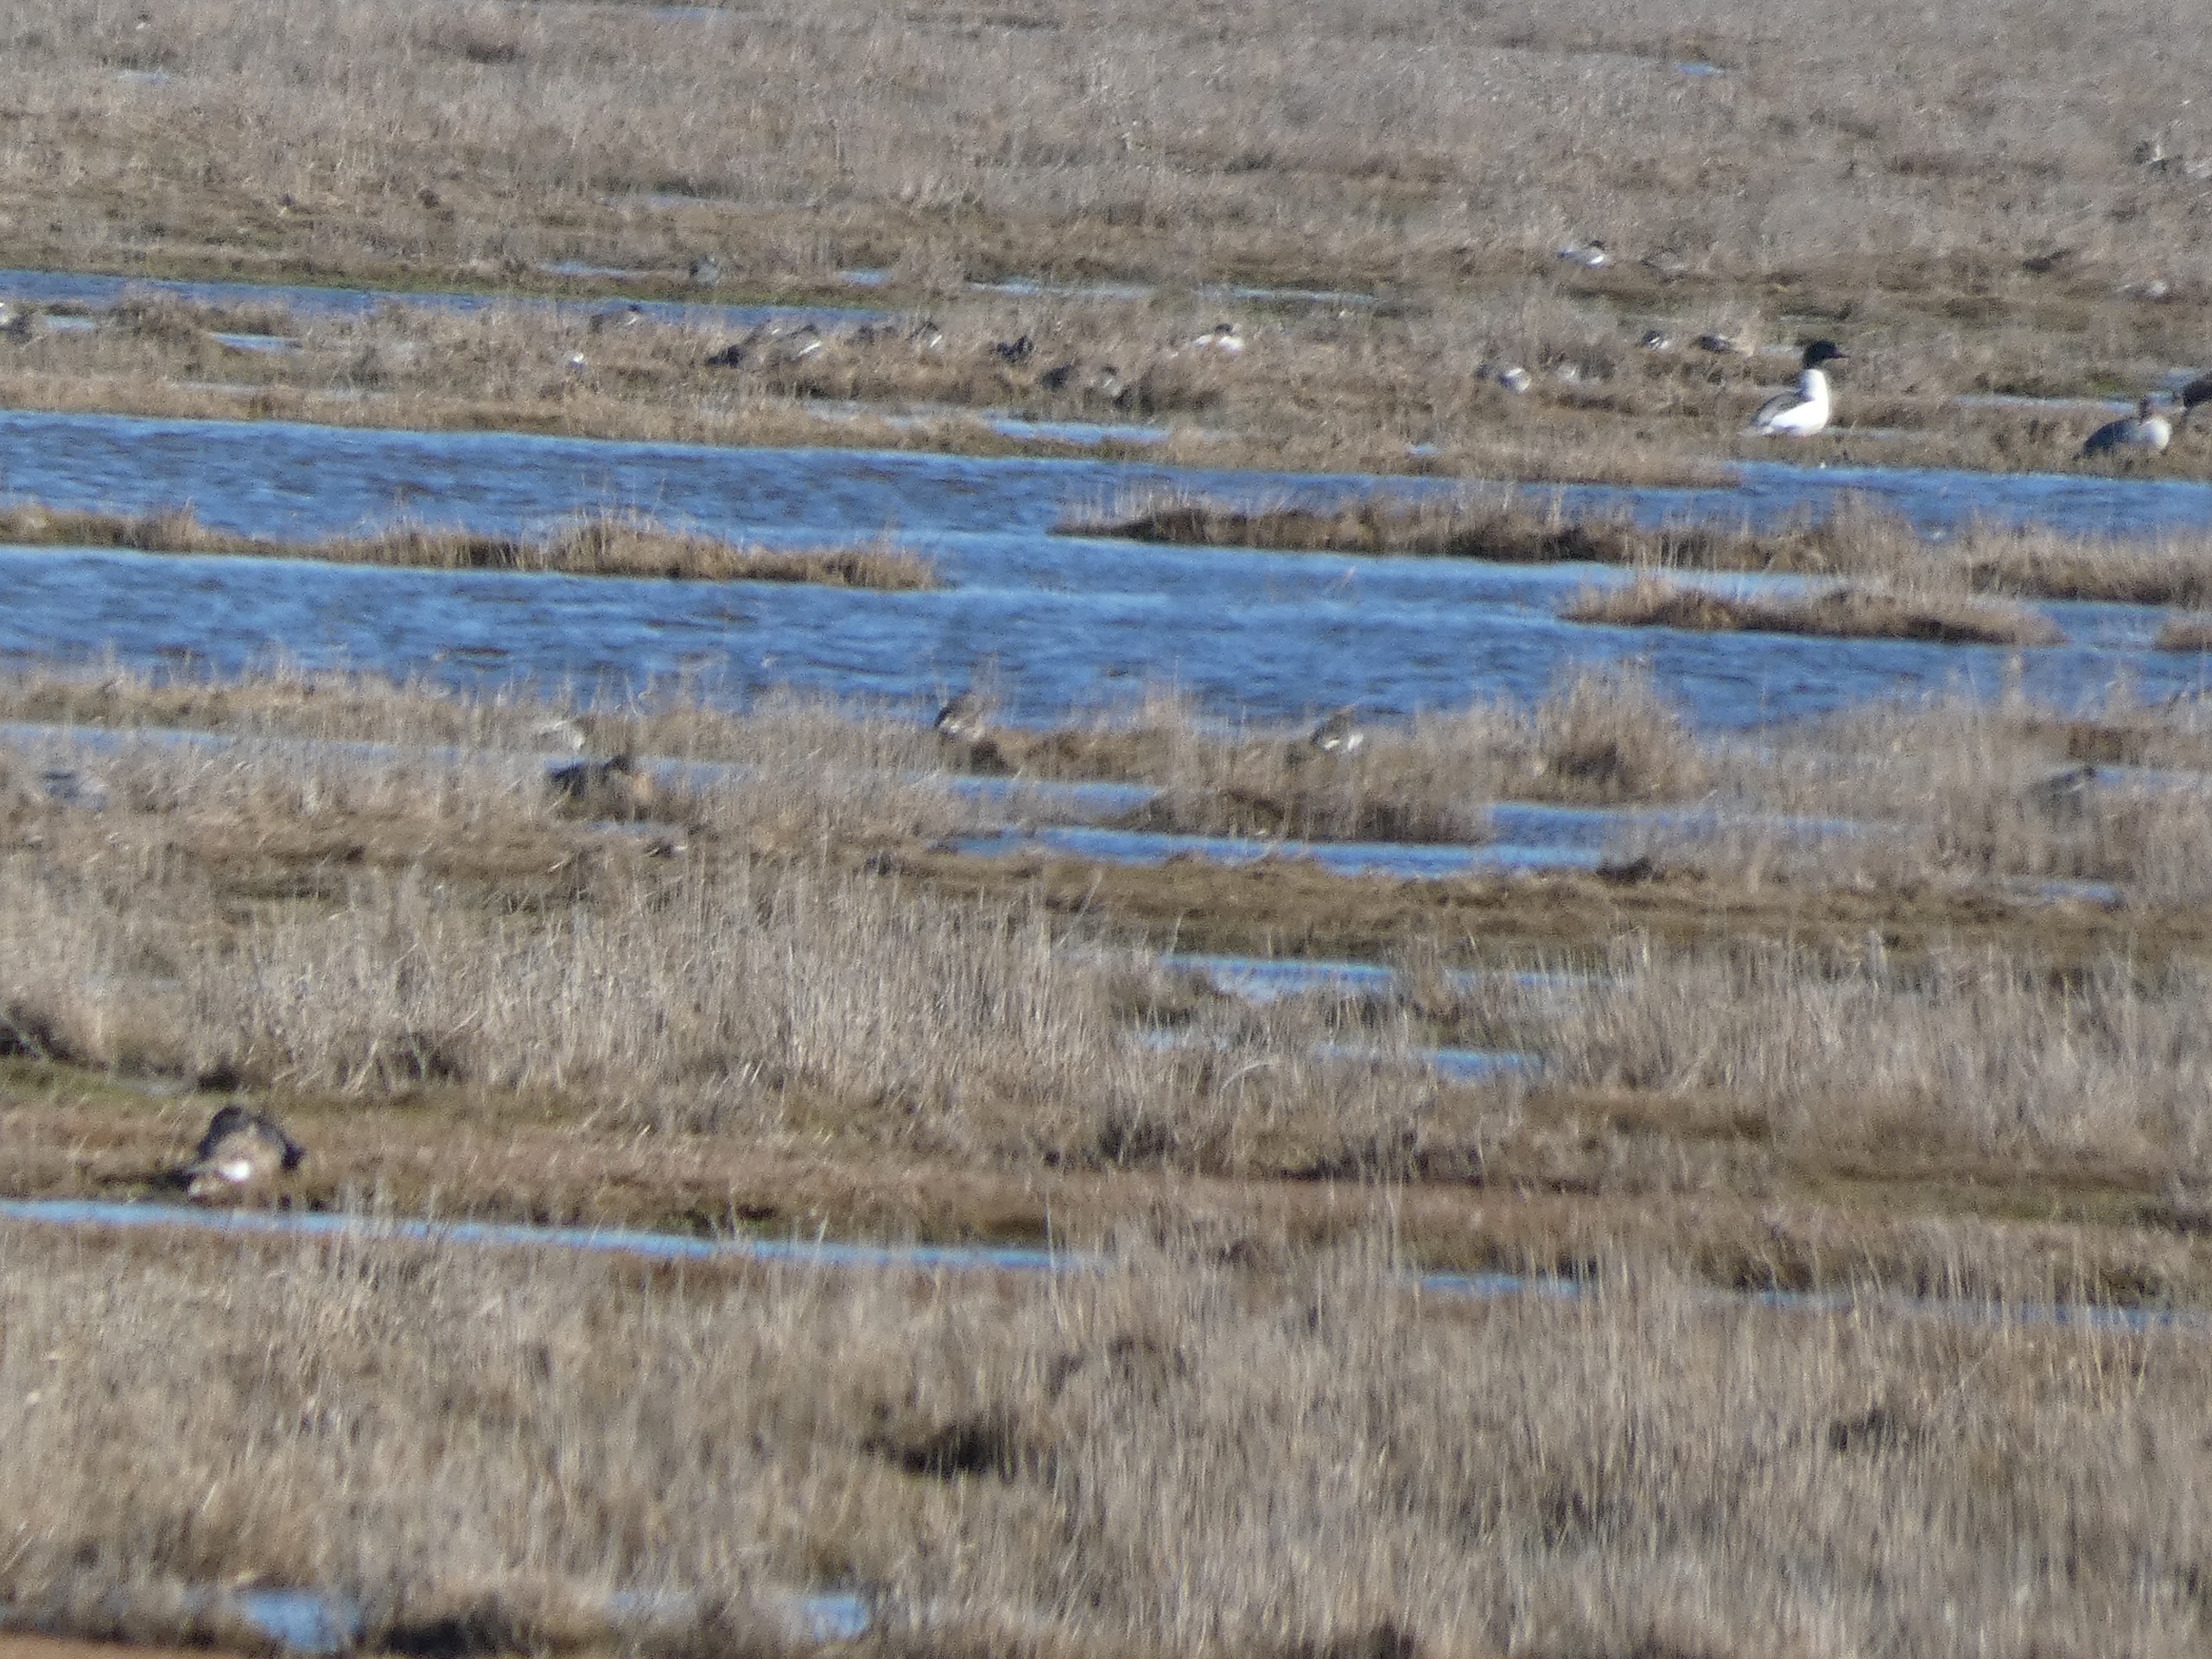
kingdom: Animalia
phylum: Chordata
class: Aves
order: Anseriformes
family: Anatidae
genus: Mergus
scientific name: Mergus merganser
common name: Stor skallesluger
